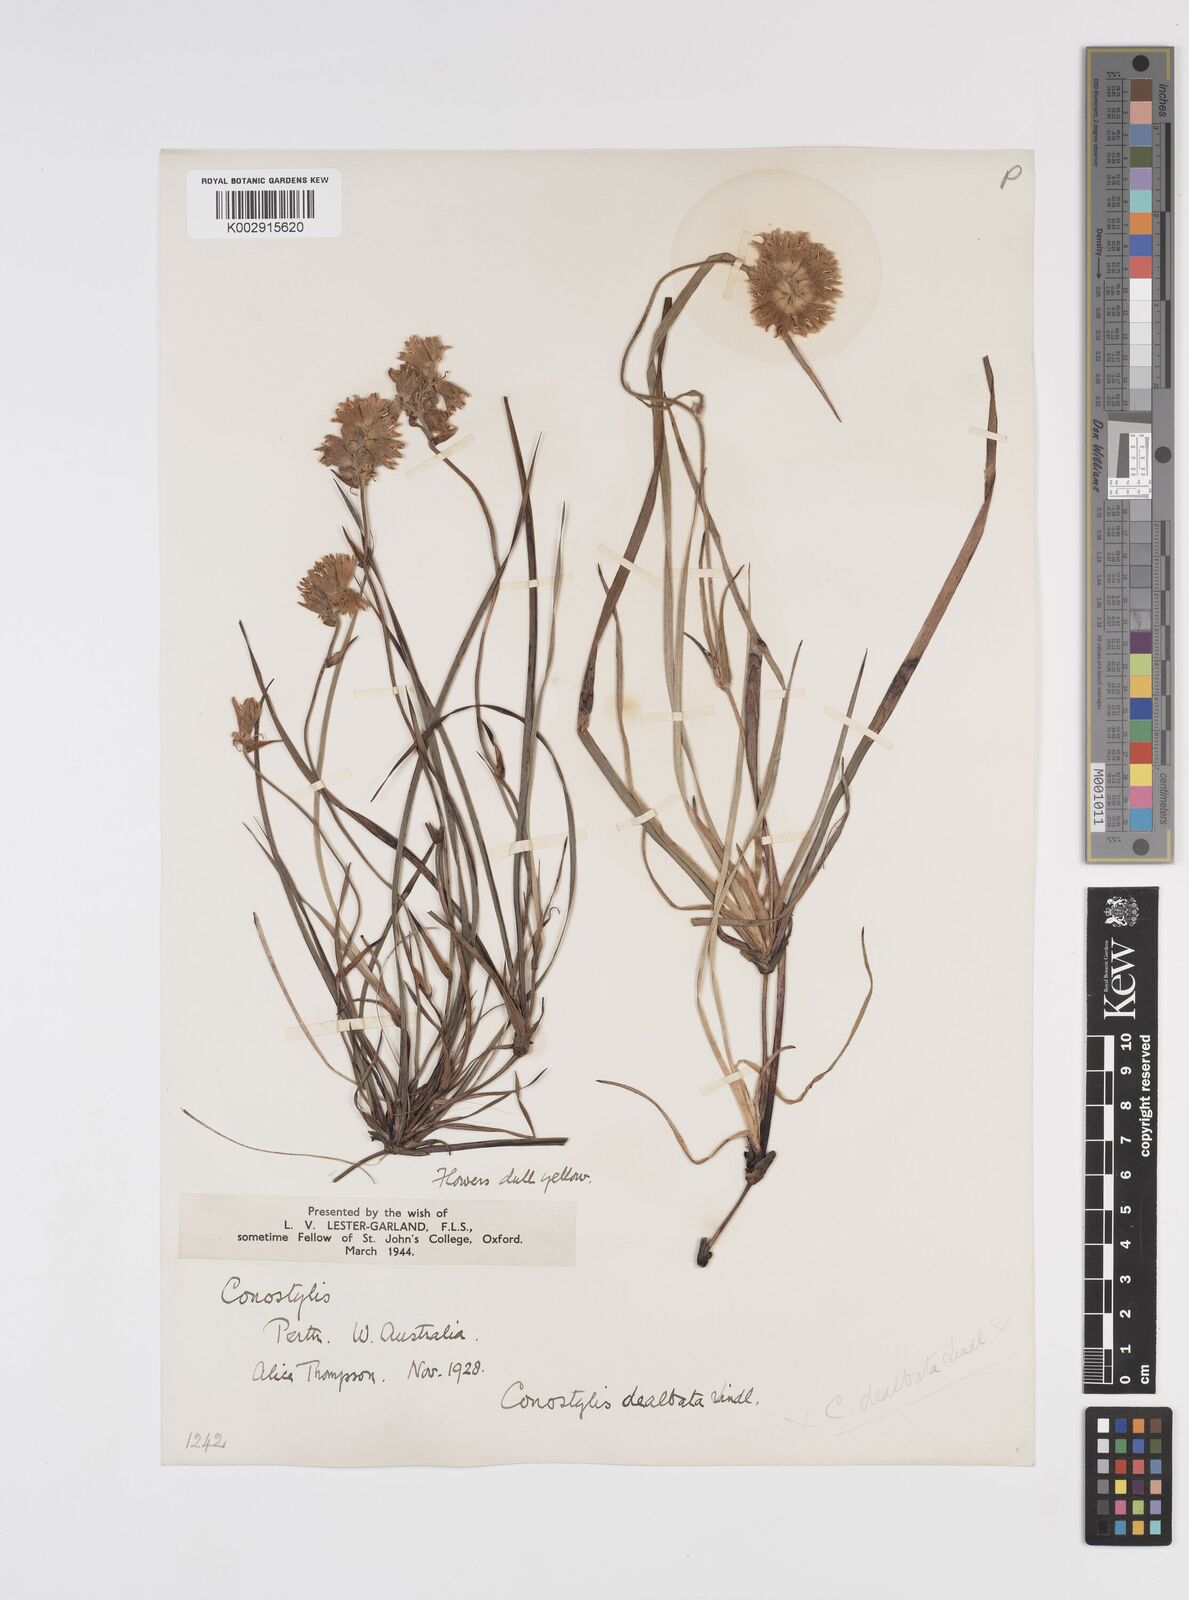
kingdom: Plantae
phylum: Tracheophyta
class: Liliopsida
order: Commelinales
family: Haemodoraceae
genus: Conostylis
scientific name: Conostylis candicans
